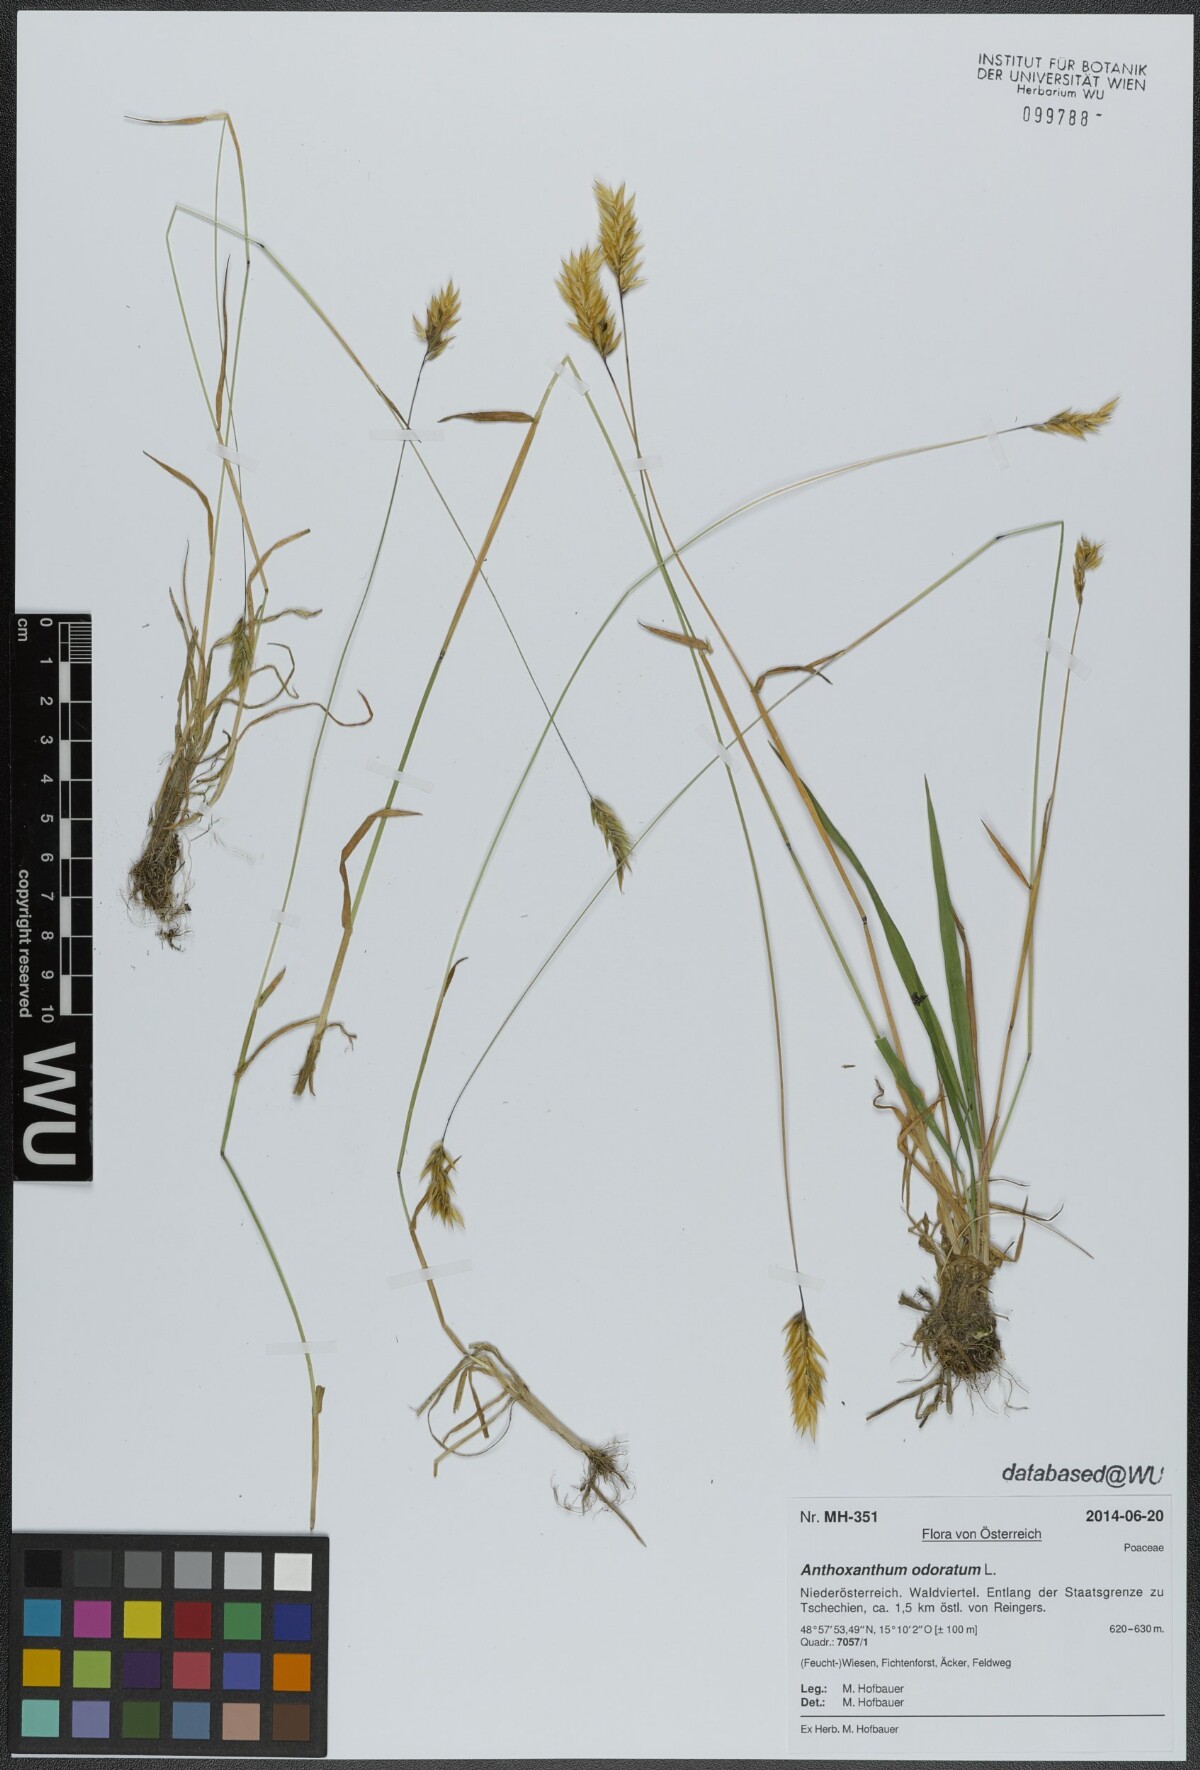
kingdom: Plantae
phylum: Tracheophyta
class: Liliopsida
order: Poales
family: Poaceae
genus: Anthoxanthum
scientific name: Anthoxanthum odoratum
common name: Sweet vernalgrass
